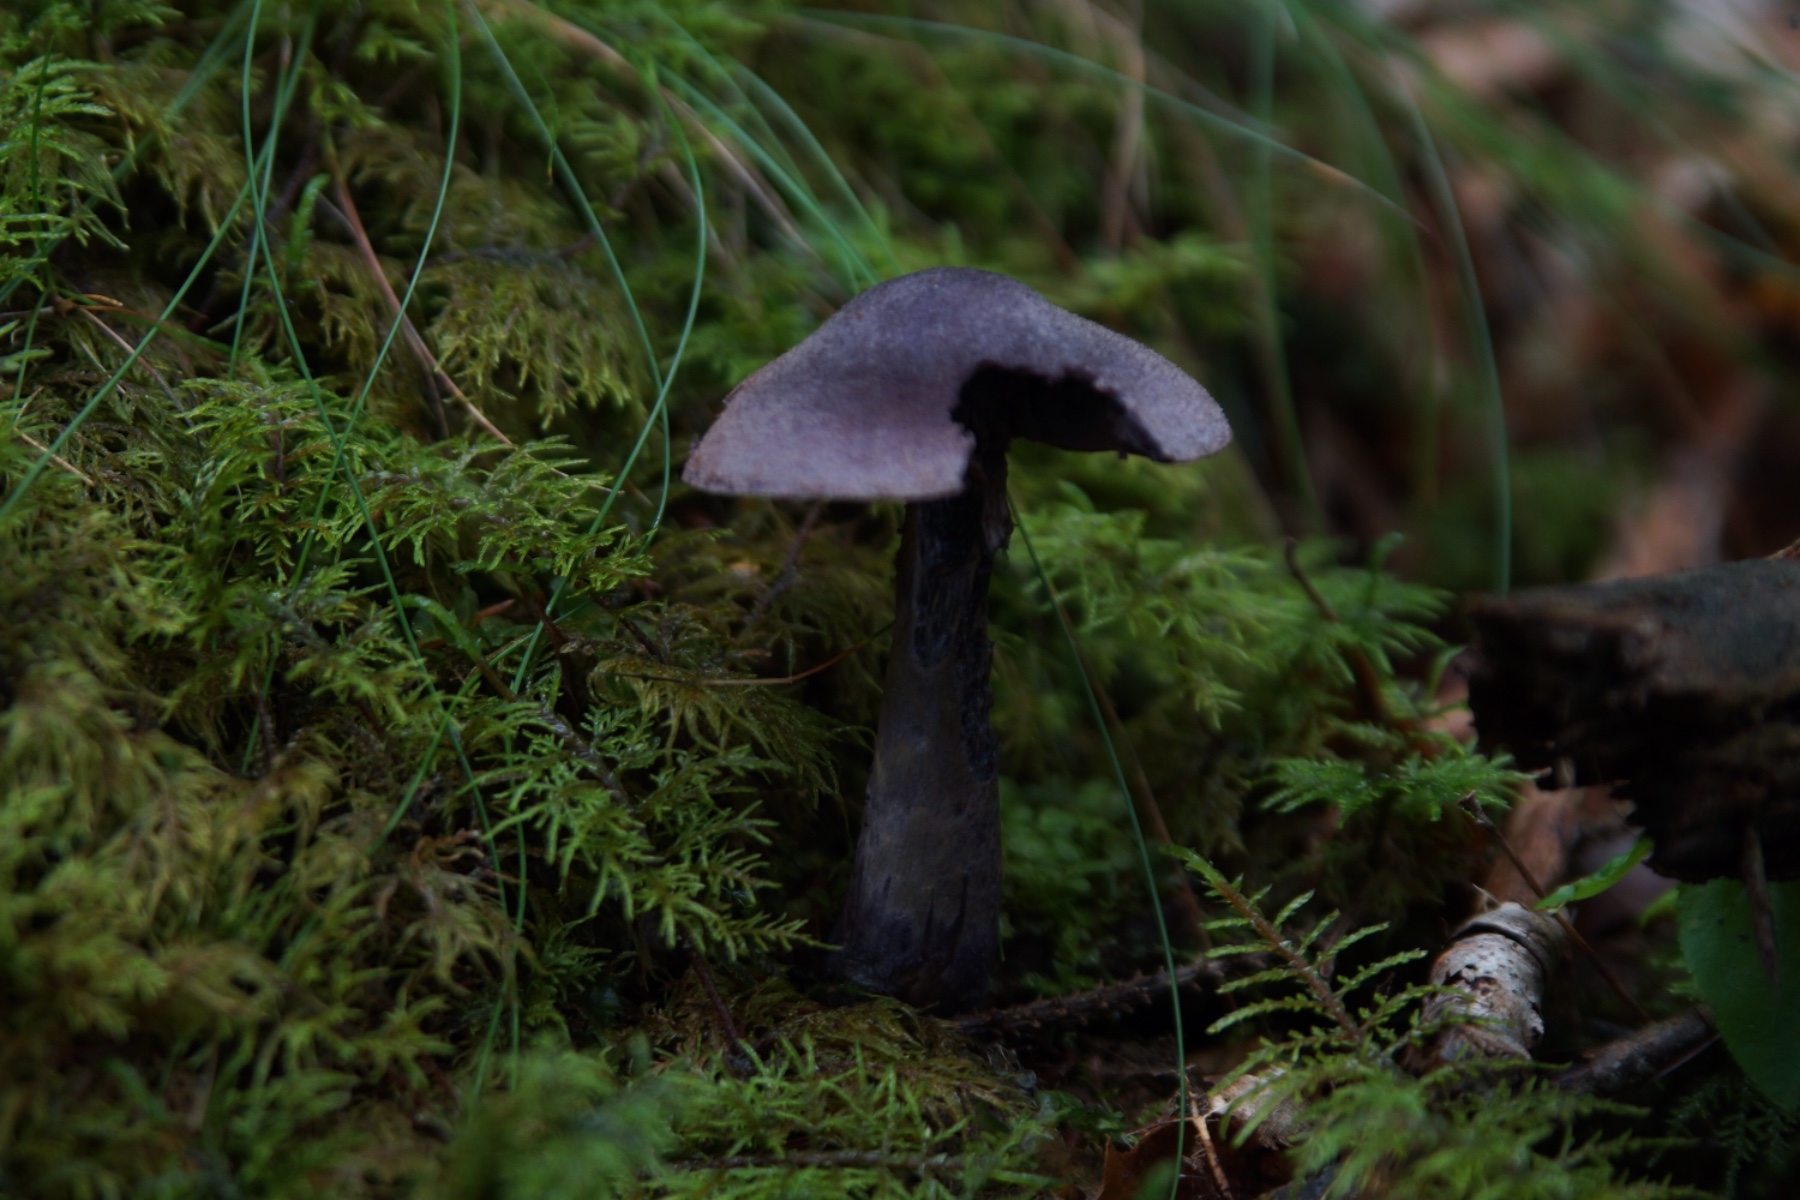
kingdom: Fungi
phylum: Basidiomycota
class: Agaricomycetes
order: Agaricales
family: Cortinariaceae
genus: Cortinarius
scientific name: Cortinarius violaceus
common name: mørkviolet slørhat
